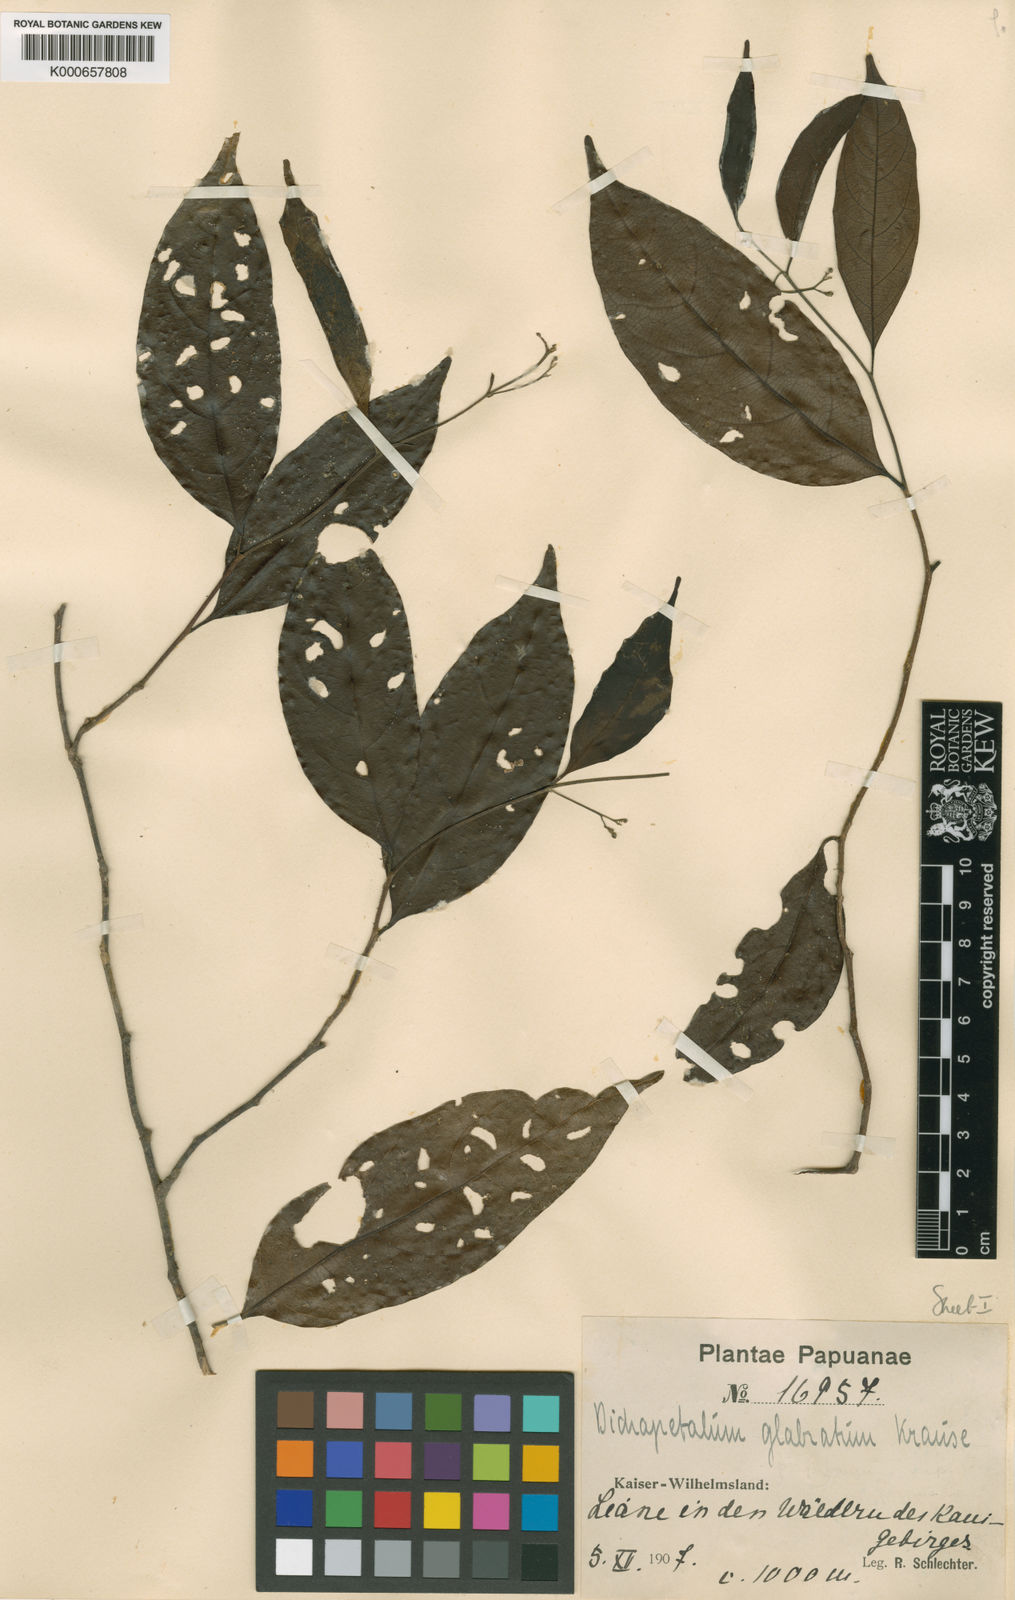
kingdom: Plantae
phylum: Tracheophyta
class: Magnoliopsida
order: Malpighiales
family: Dichapetalaceae
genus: Dichapetalum
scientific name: Dichapetalum papuanum
